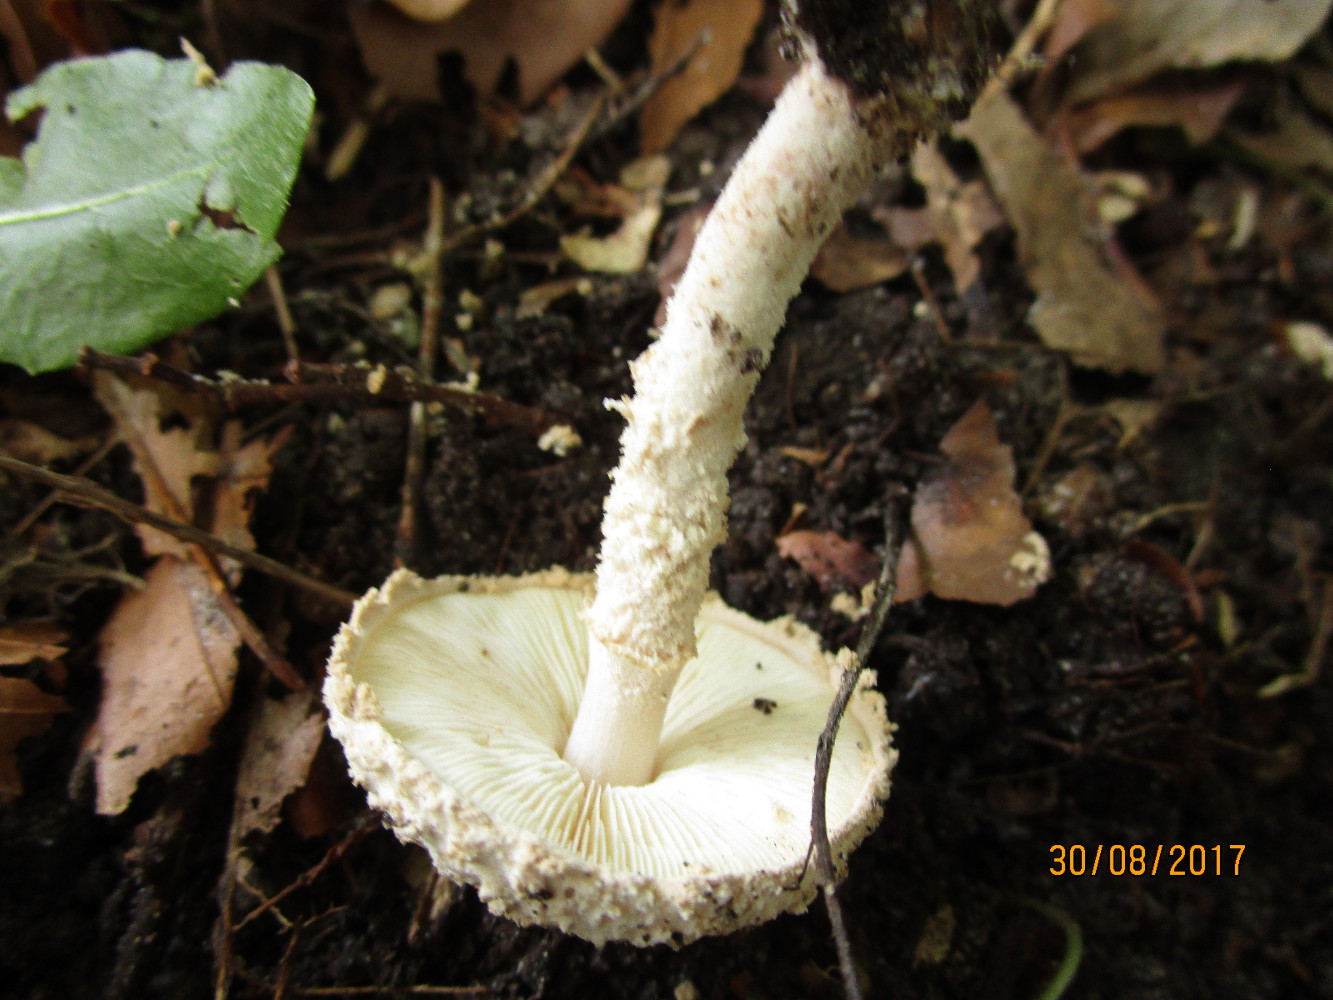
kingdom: Fungi
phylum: Basidiomycota
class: Agaricomycetes
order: Agaricales
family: Agaricaceae
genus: Cystolepiota
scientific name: Cystolepiota adulterina
